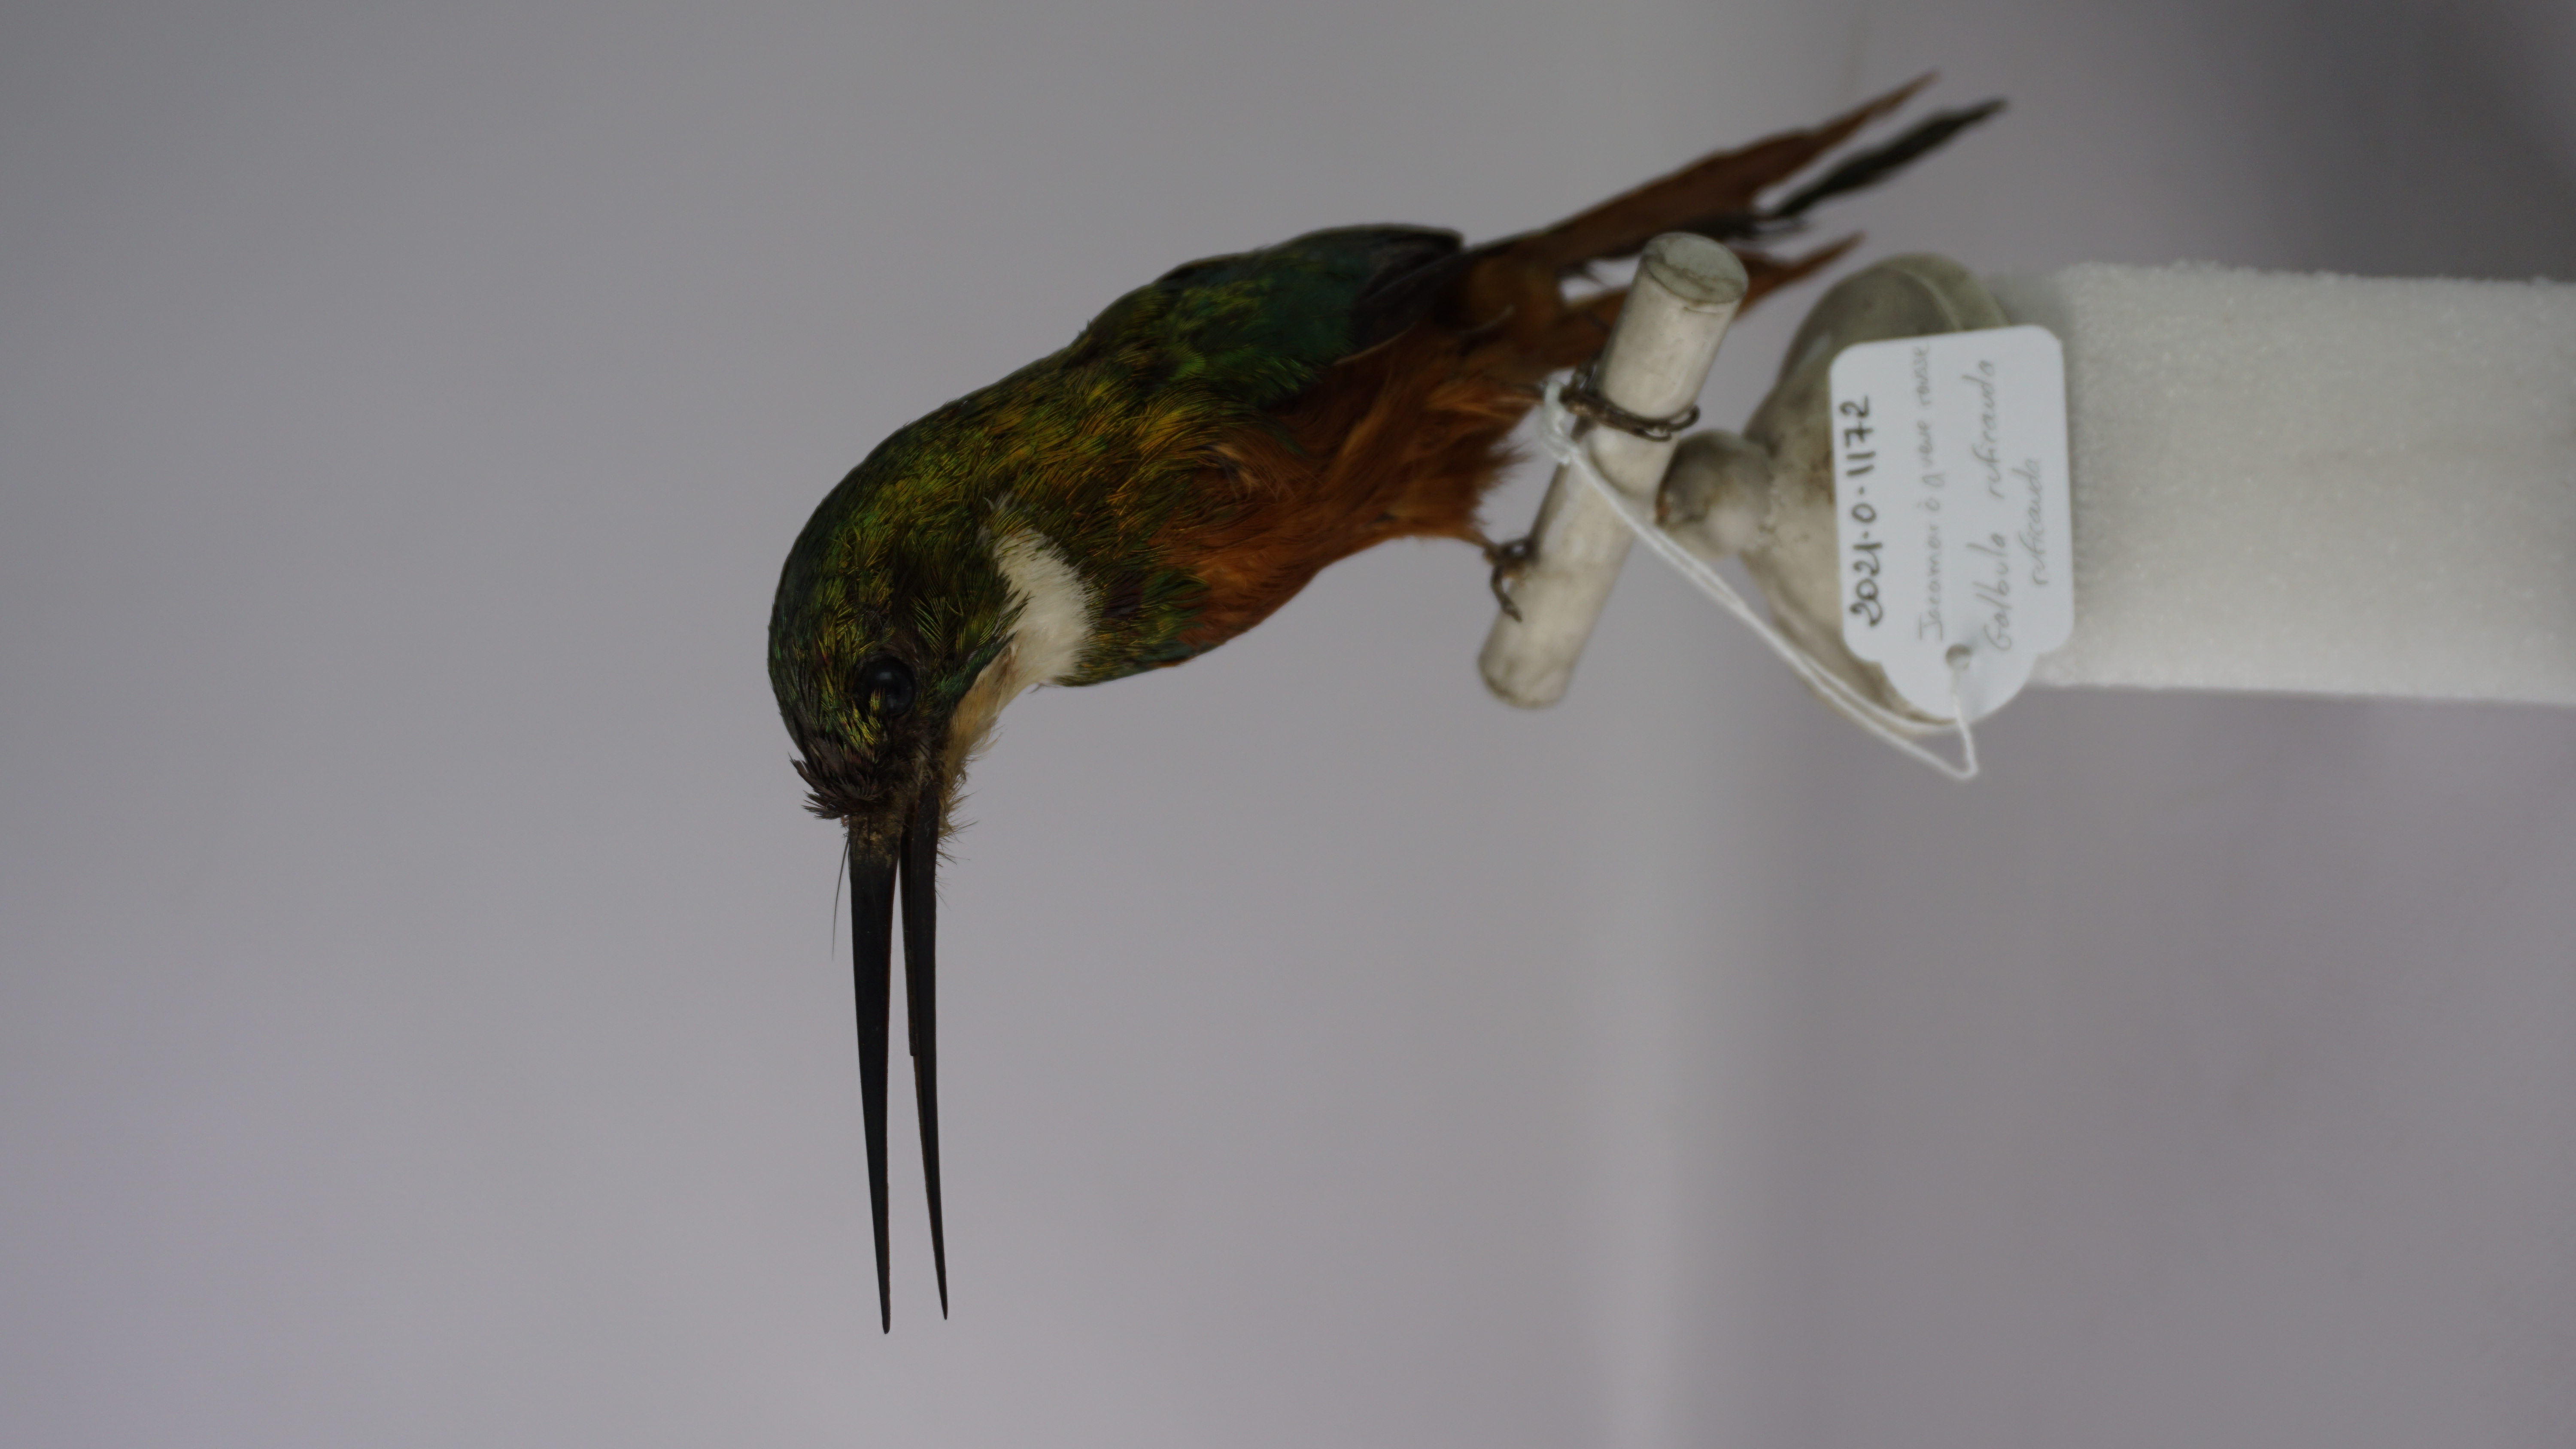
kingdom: Animalia
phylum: Chordata
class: Aves
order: Piciformes
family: Galbulidae
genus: Galbula
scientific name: Galbula ruficauda
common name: Rufous-tailed jacamar
